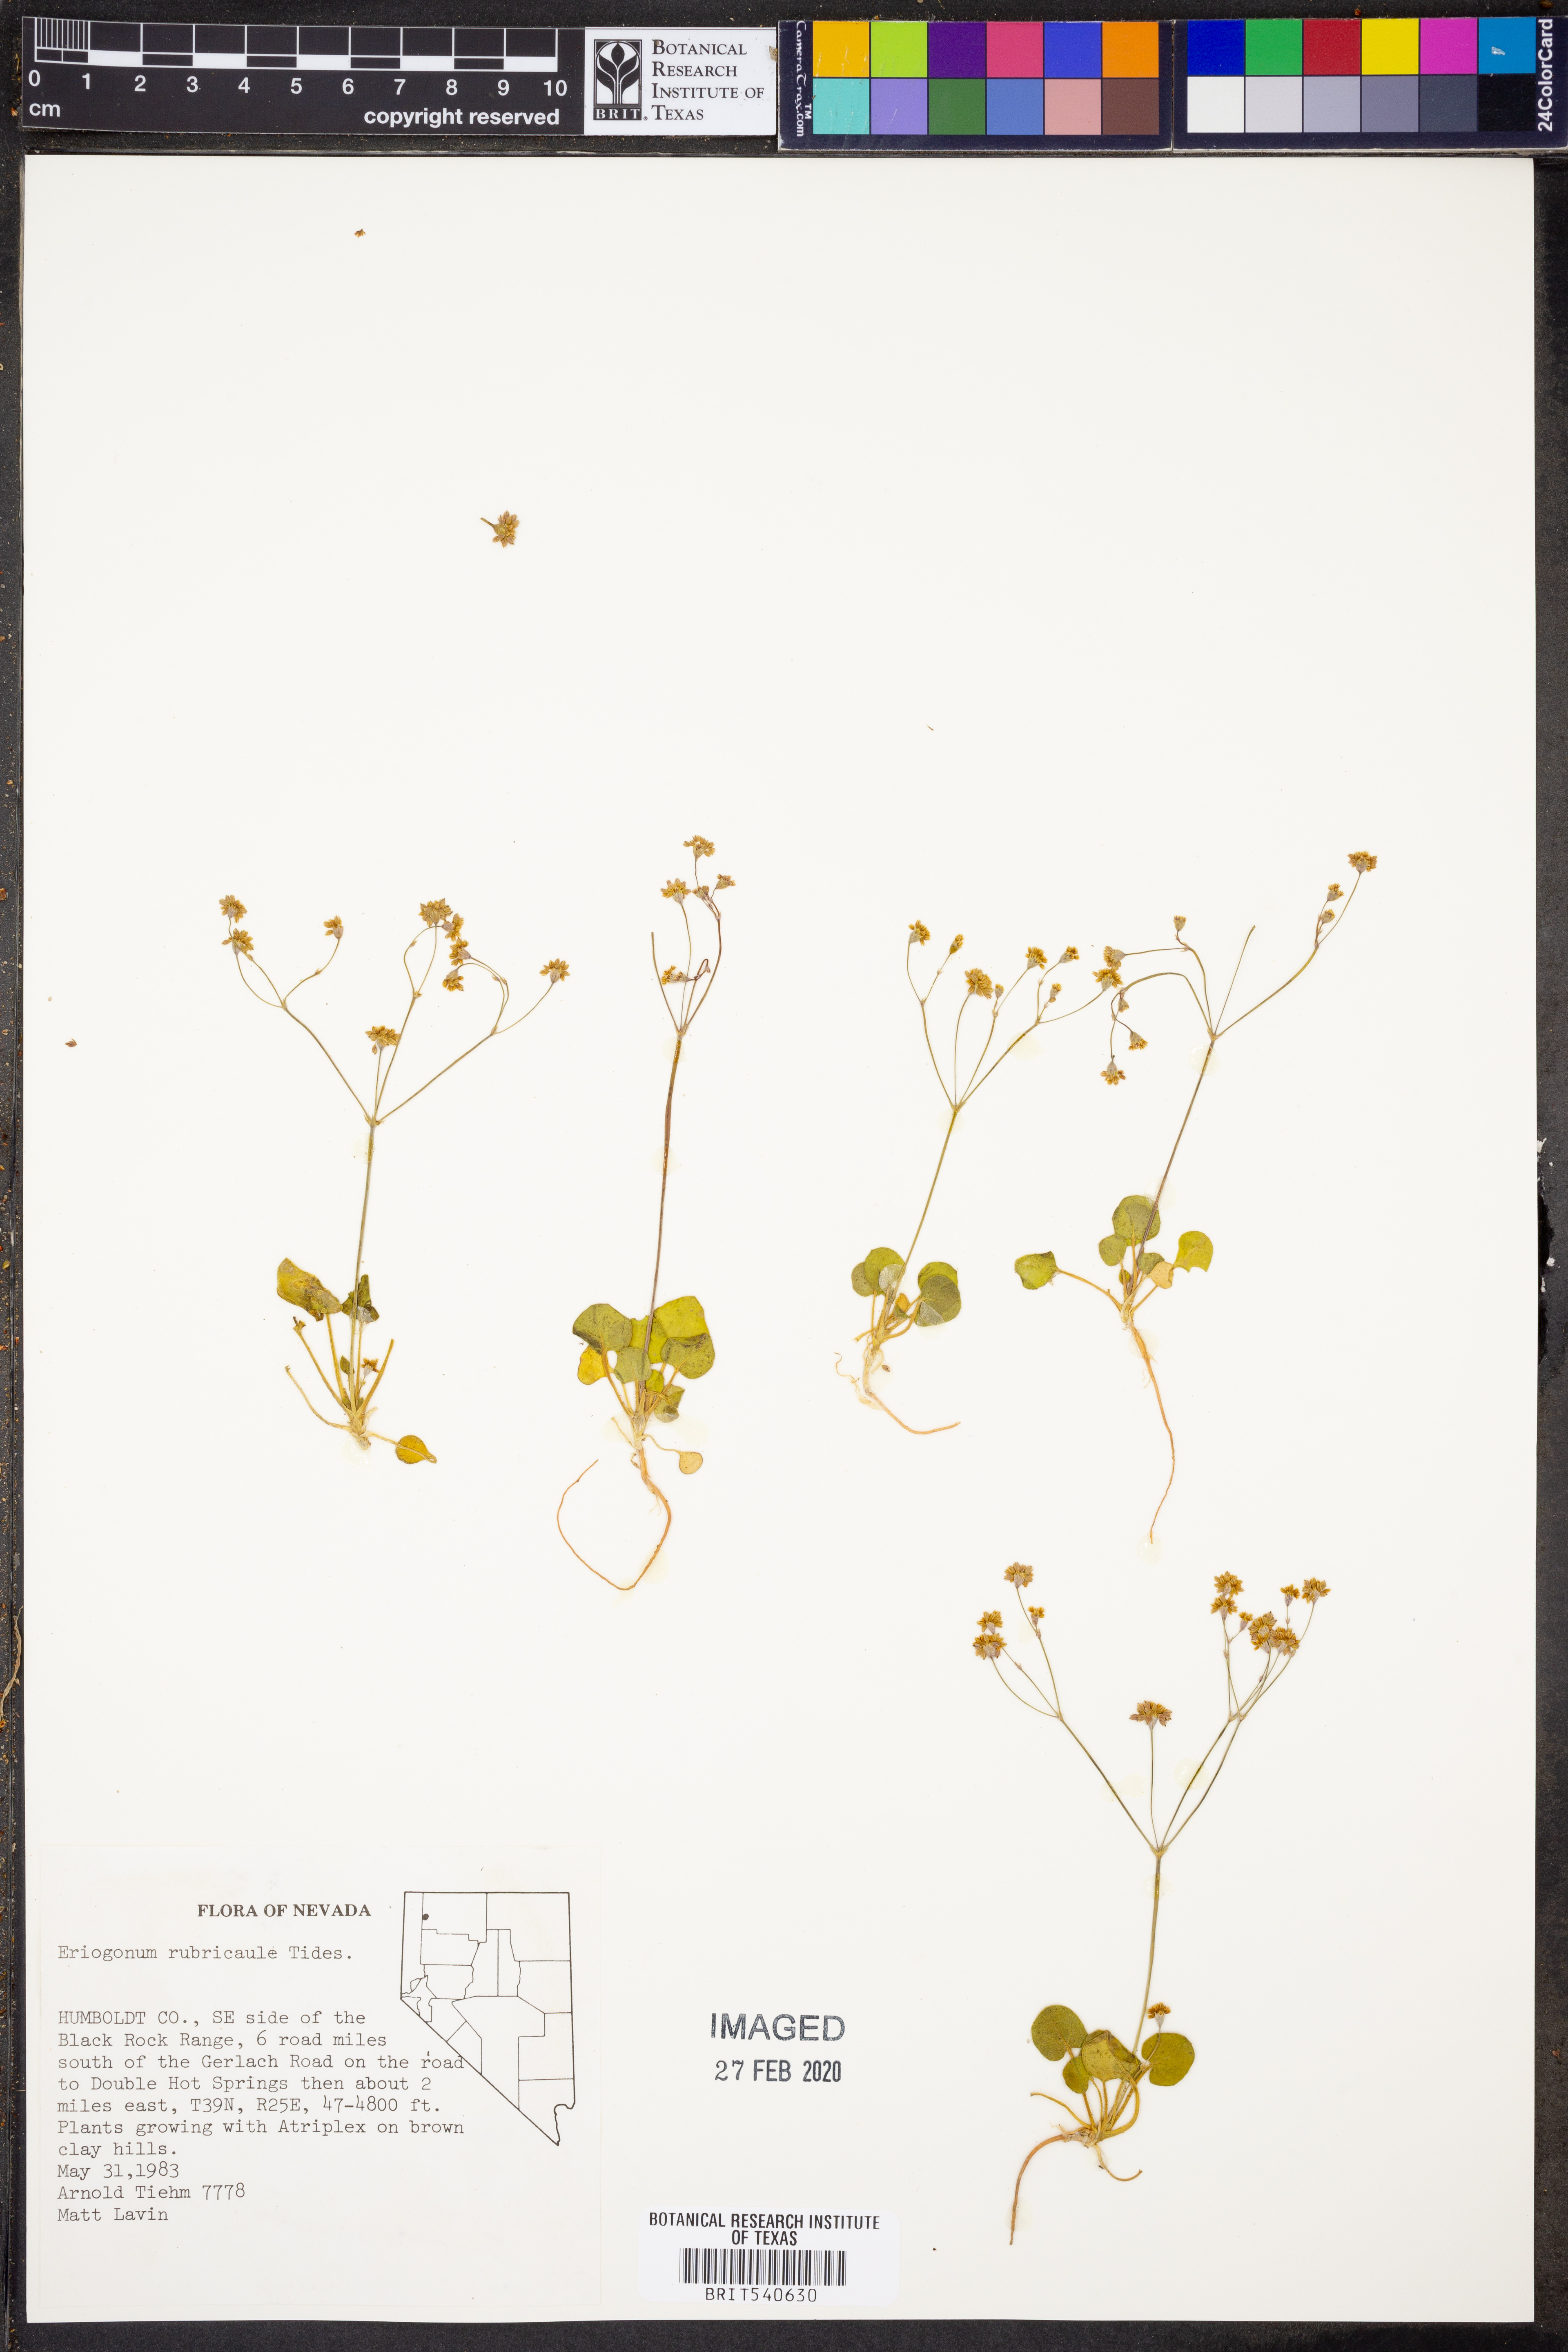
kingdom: Plantae
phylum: Tracheophyta
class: Magnoliopsida
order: Caryophyllales
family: Polygonaceae
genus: Eriogonum
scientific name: Eriogonum rubricaule
